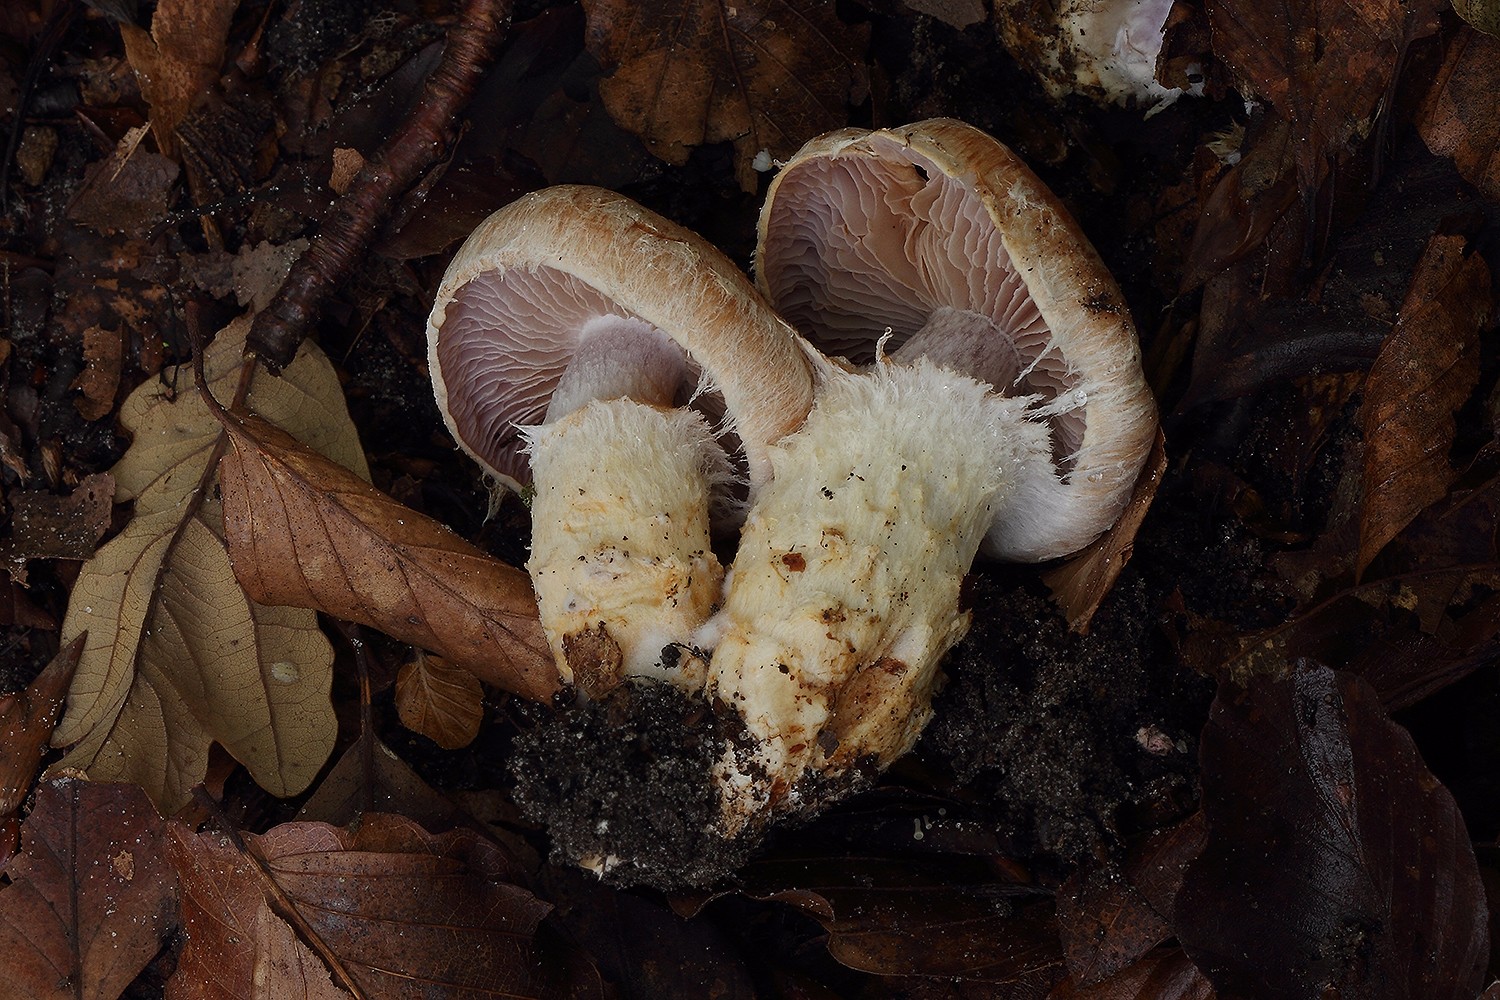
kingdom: Fungi
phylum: Basidiomycota
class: Agaricomycetes
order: Agaricales
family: Cortinariaceae
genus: Phlegmacium
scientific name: Phlegmacium vulpinum
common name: ringbæltet slørhat
